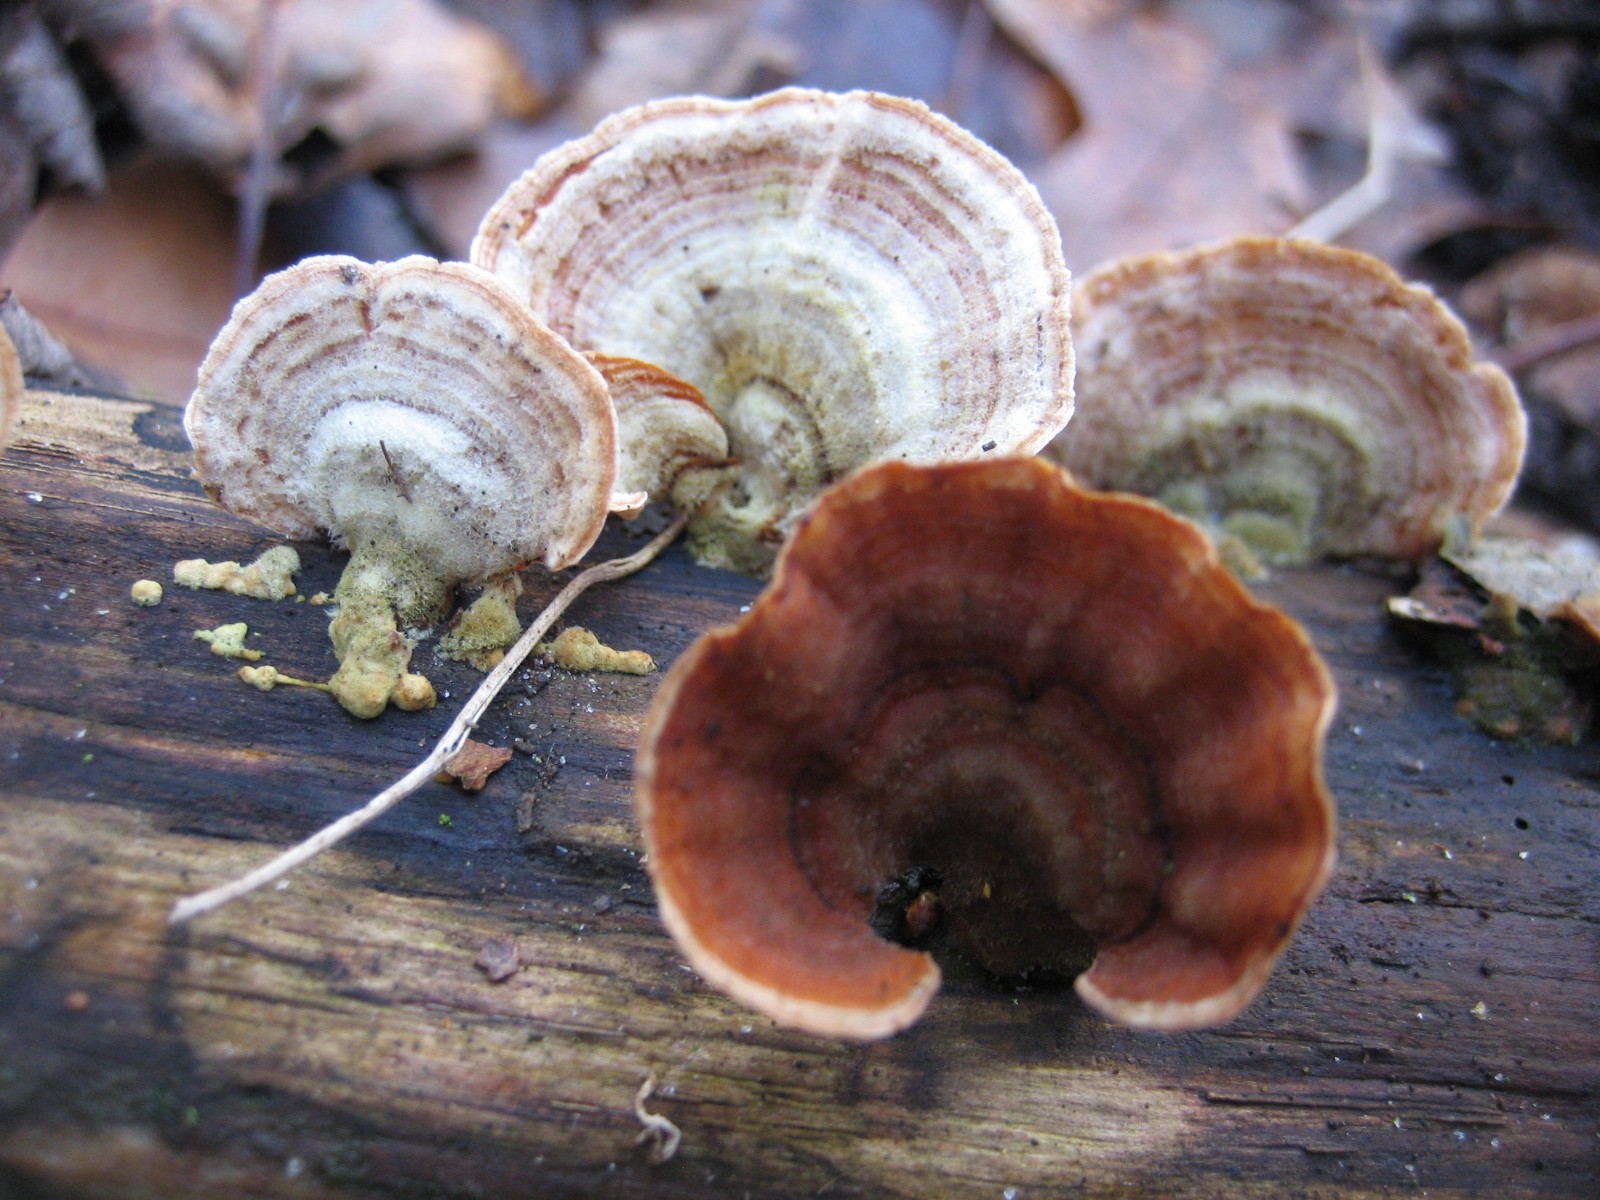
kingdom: Fungi
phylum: Basidiomycota
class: Agaricomycetes
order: Russulales
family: Stereaceae
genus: Stereum
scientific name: Stereum subtomentosum
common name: smuk lædersvamp
